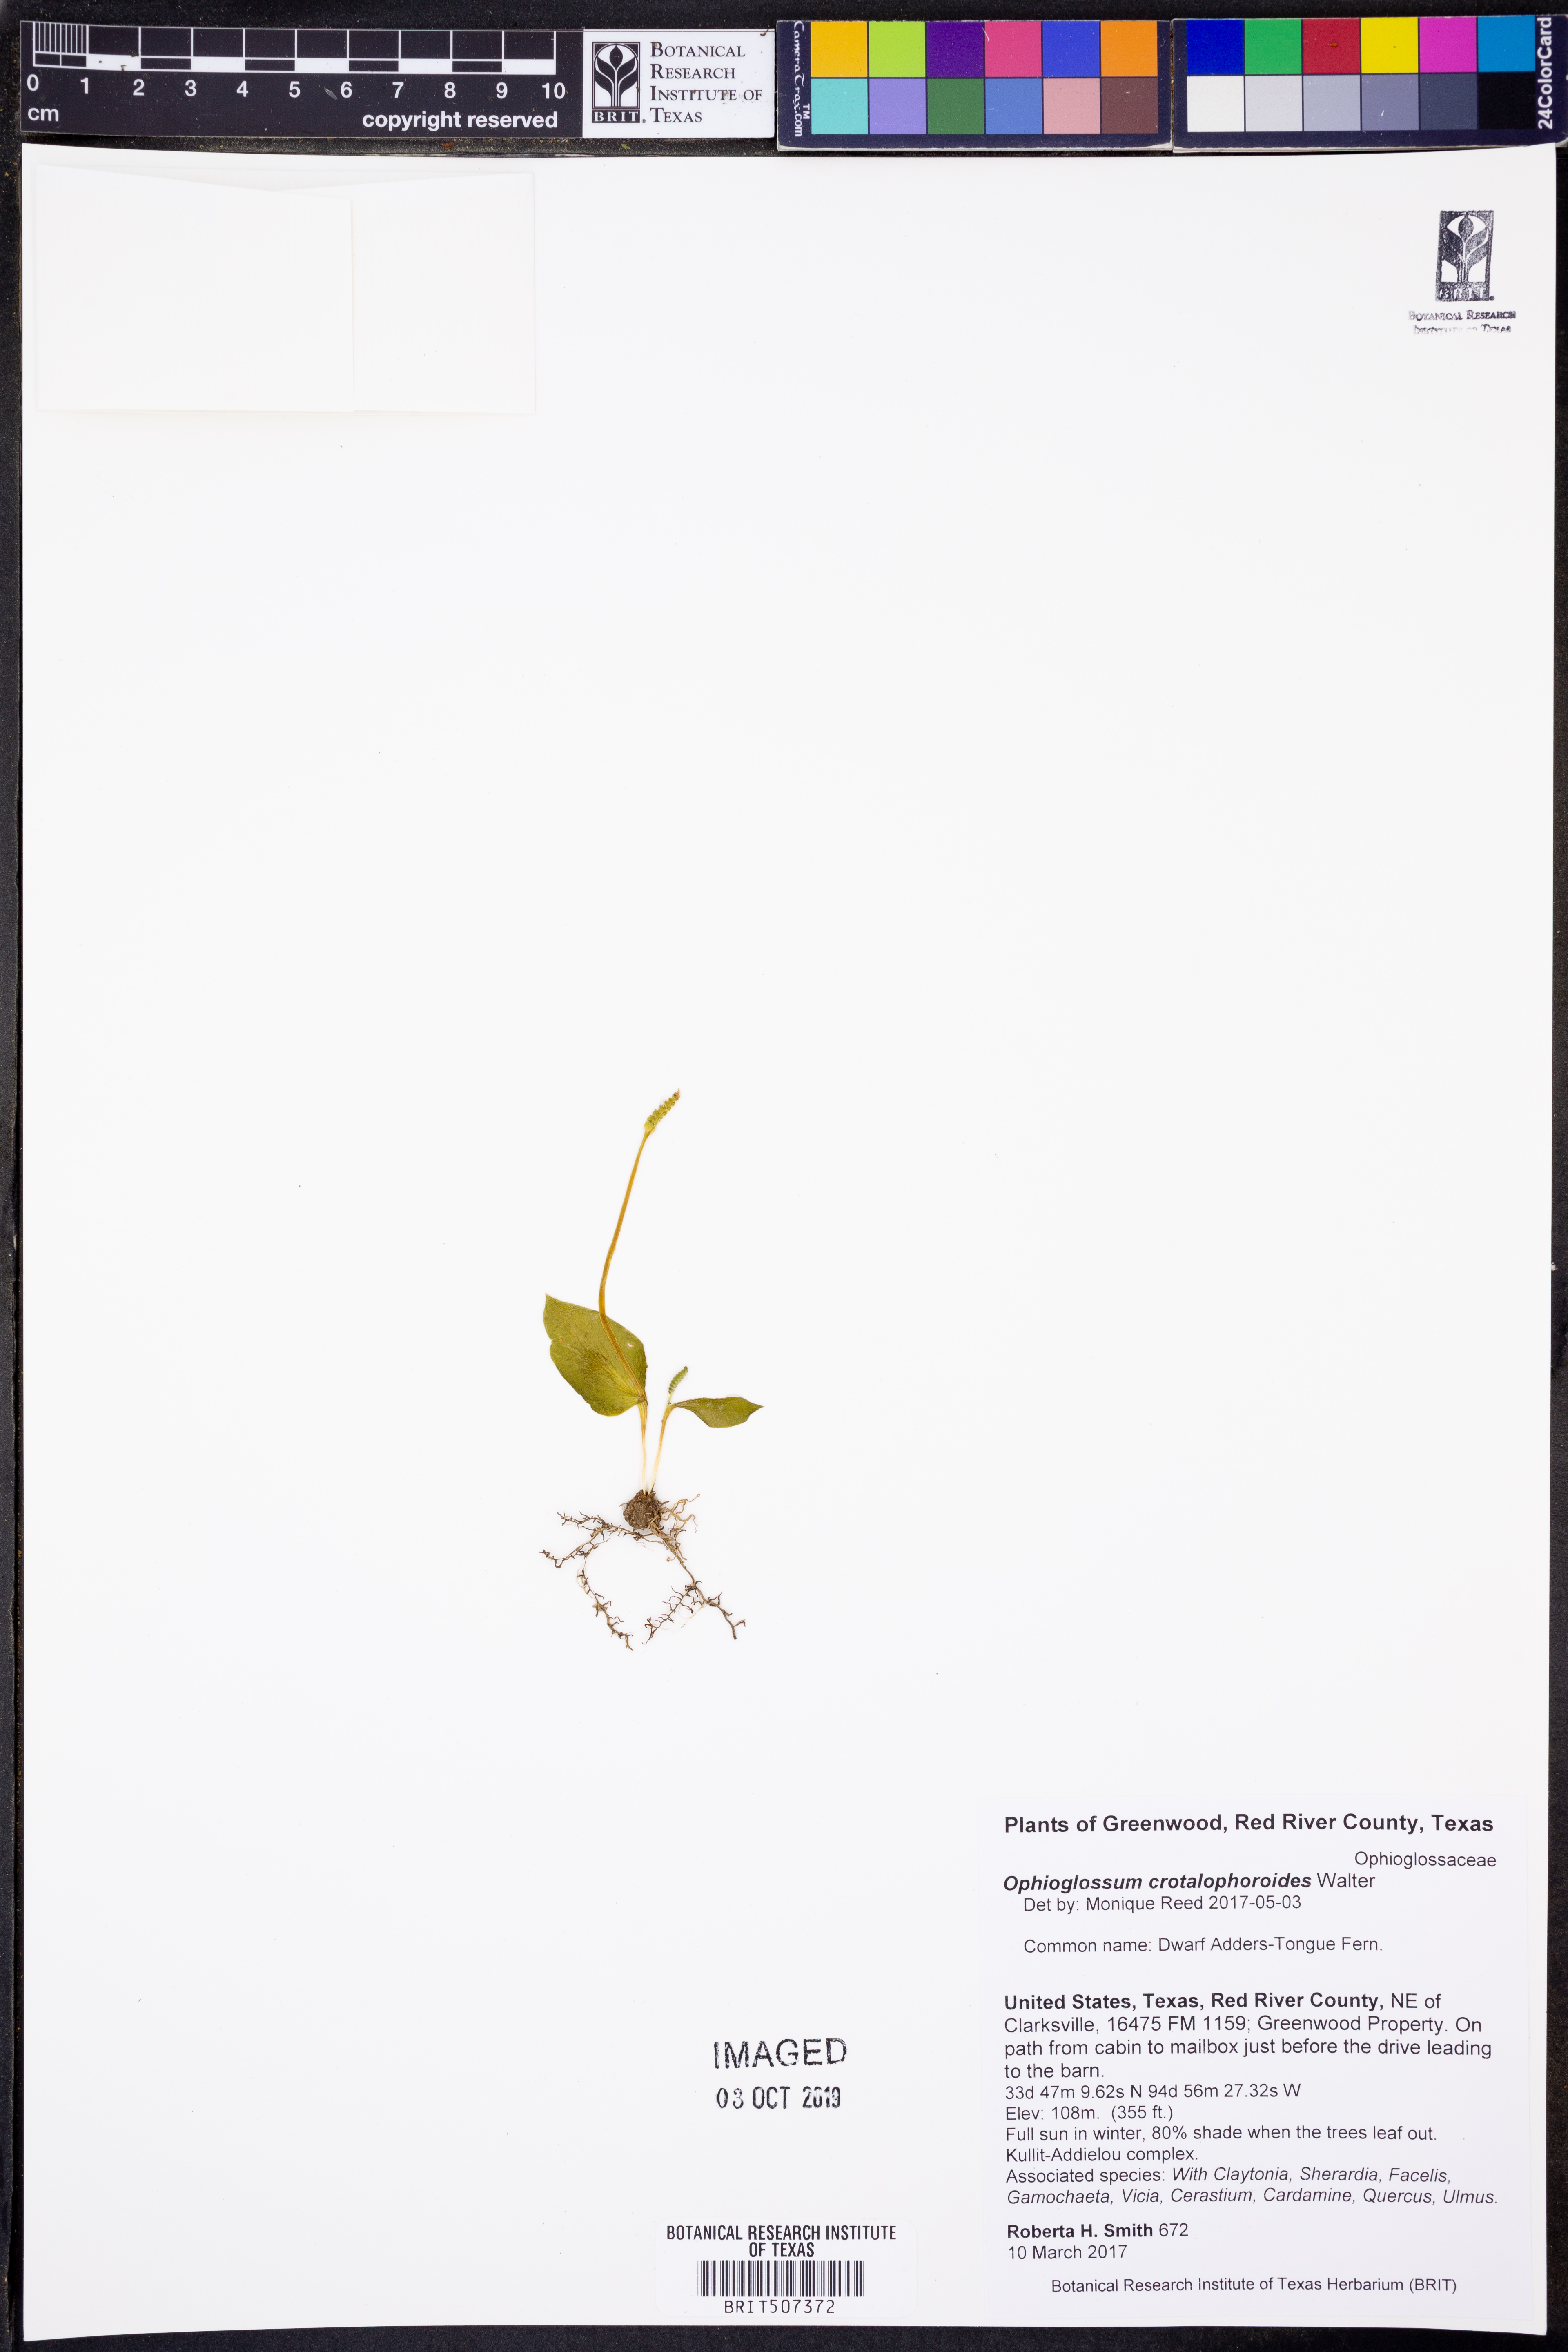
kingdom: Plantae
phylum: Tracheophyta
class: Polypodiopsida
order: Ophioglossales
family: Ophioglossaceae
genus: Ophioglossum
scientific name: Ophioglossum crotalophoroides
